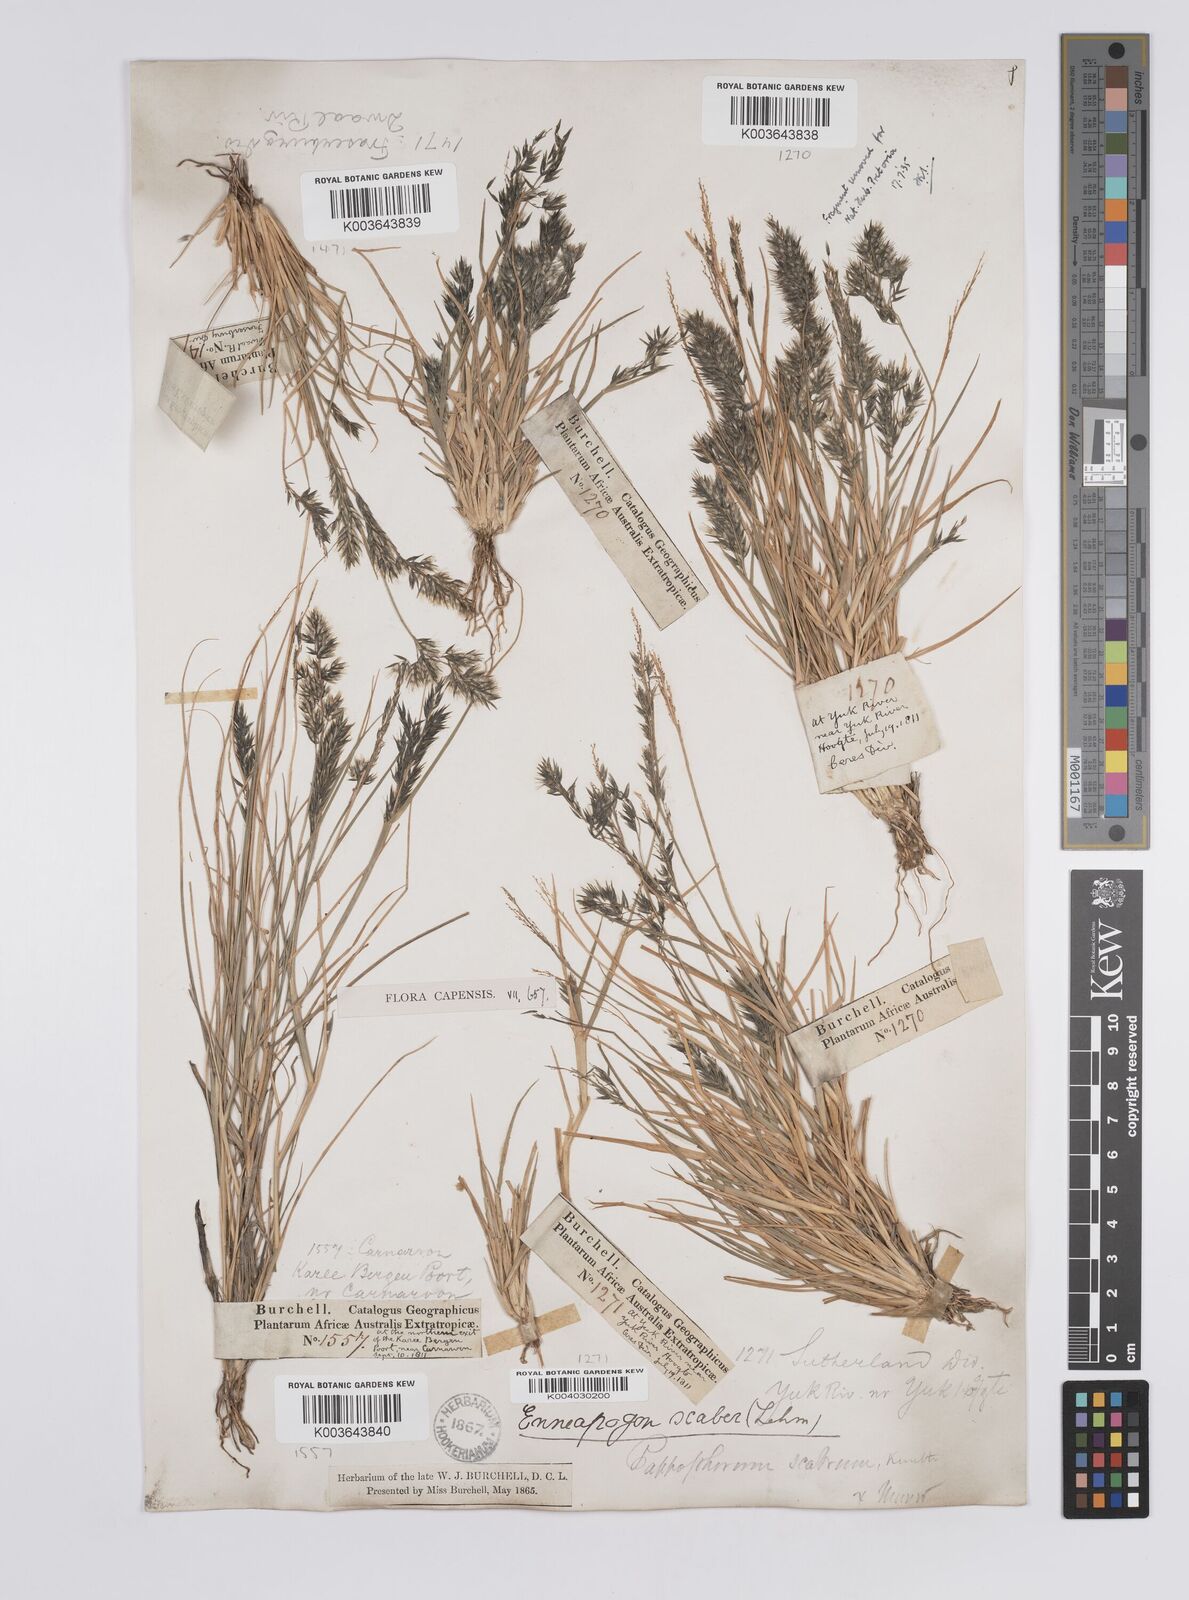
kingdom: Plantae
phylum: Tracheophyta
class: Liliopsida
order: Poales
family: Poaceae
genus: Enneapogon
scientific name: Enneapogon scaber
